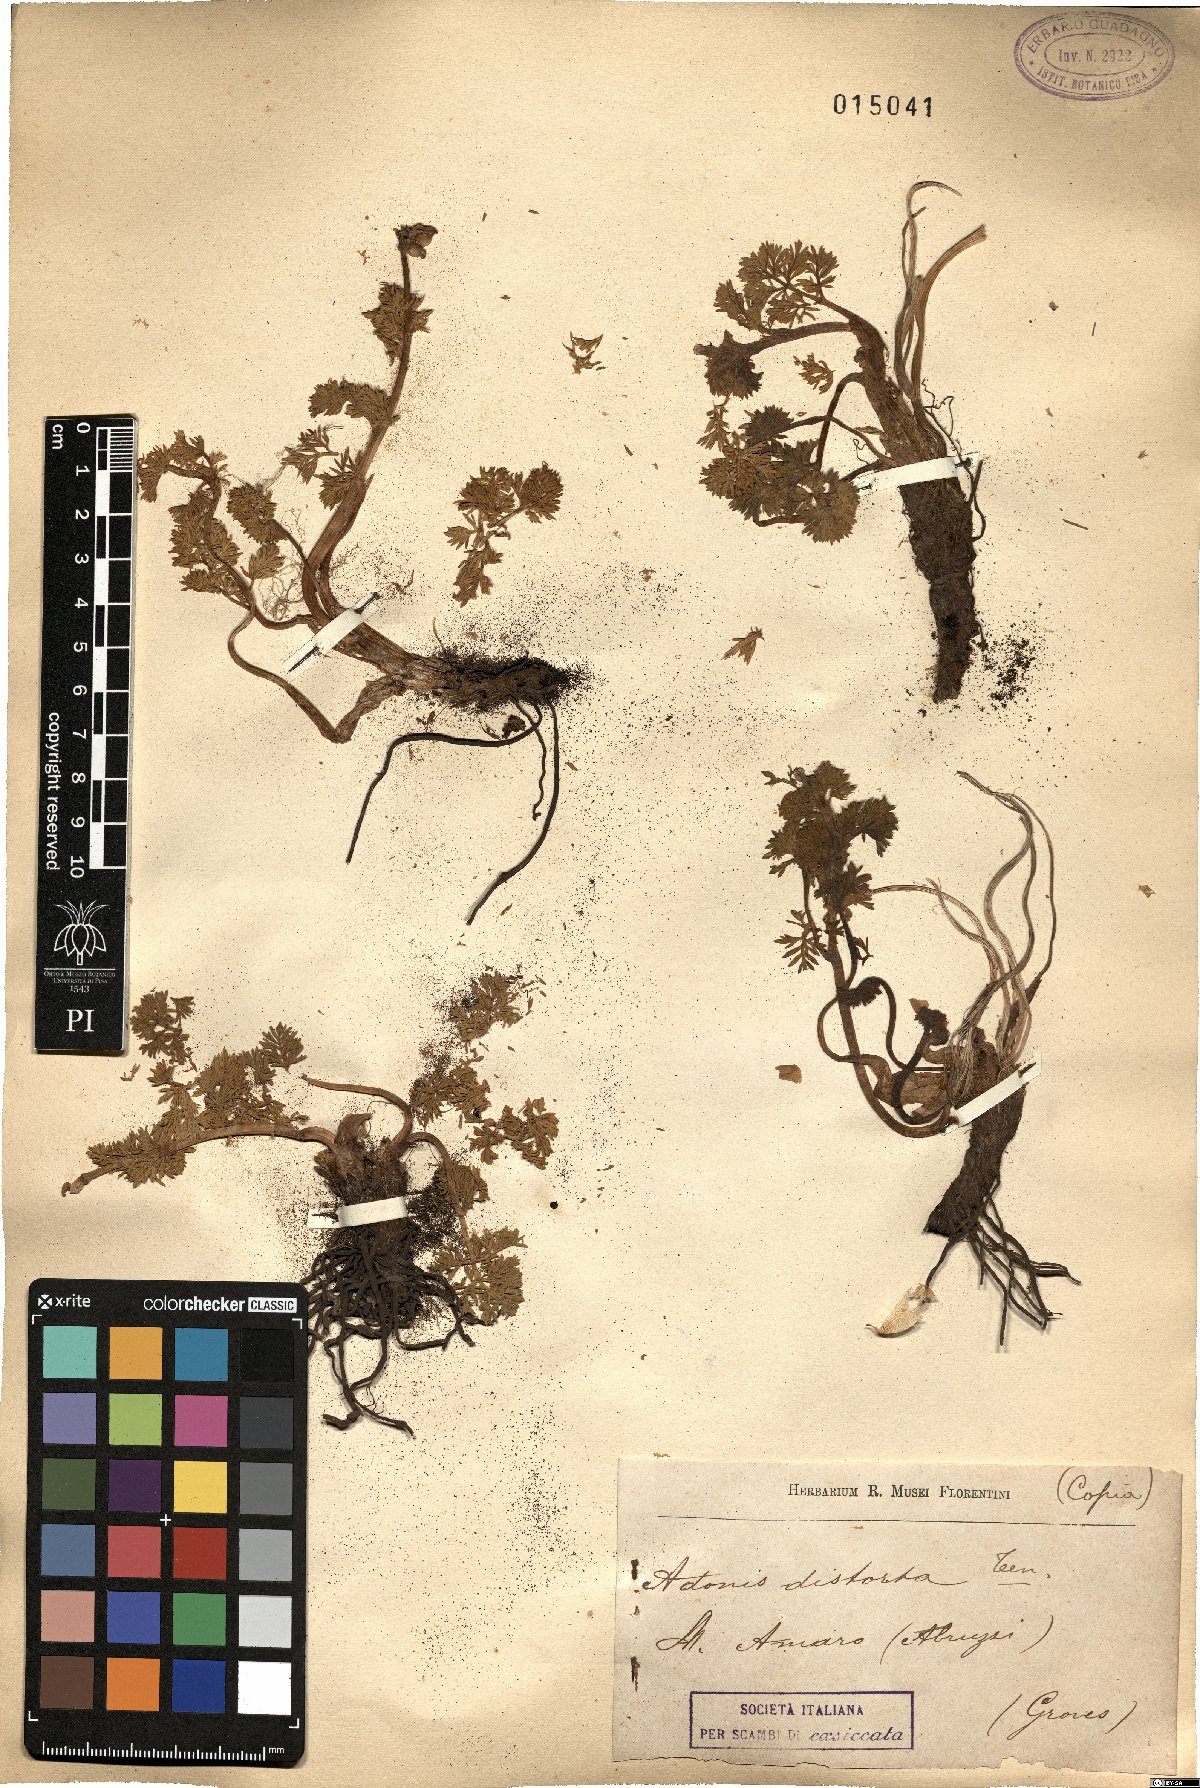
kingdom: Plantae
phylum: Tracheophyta
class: Magnoliopsida
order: Ranunculales
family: Ranunculaceae
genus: Adonis
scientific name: Adonis distorta
